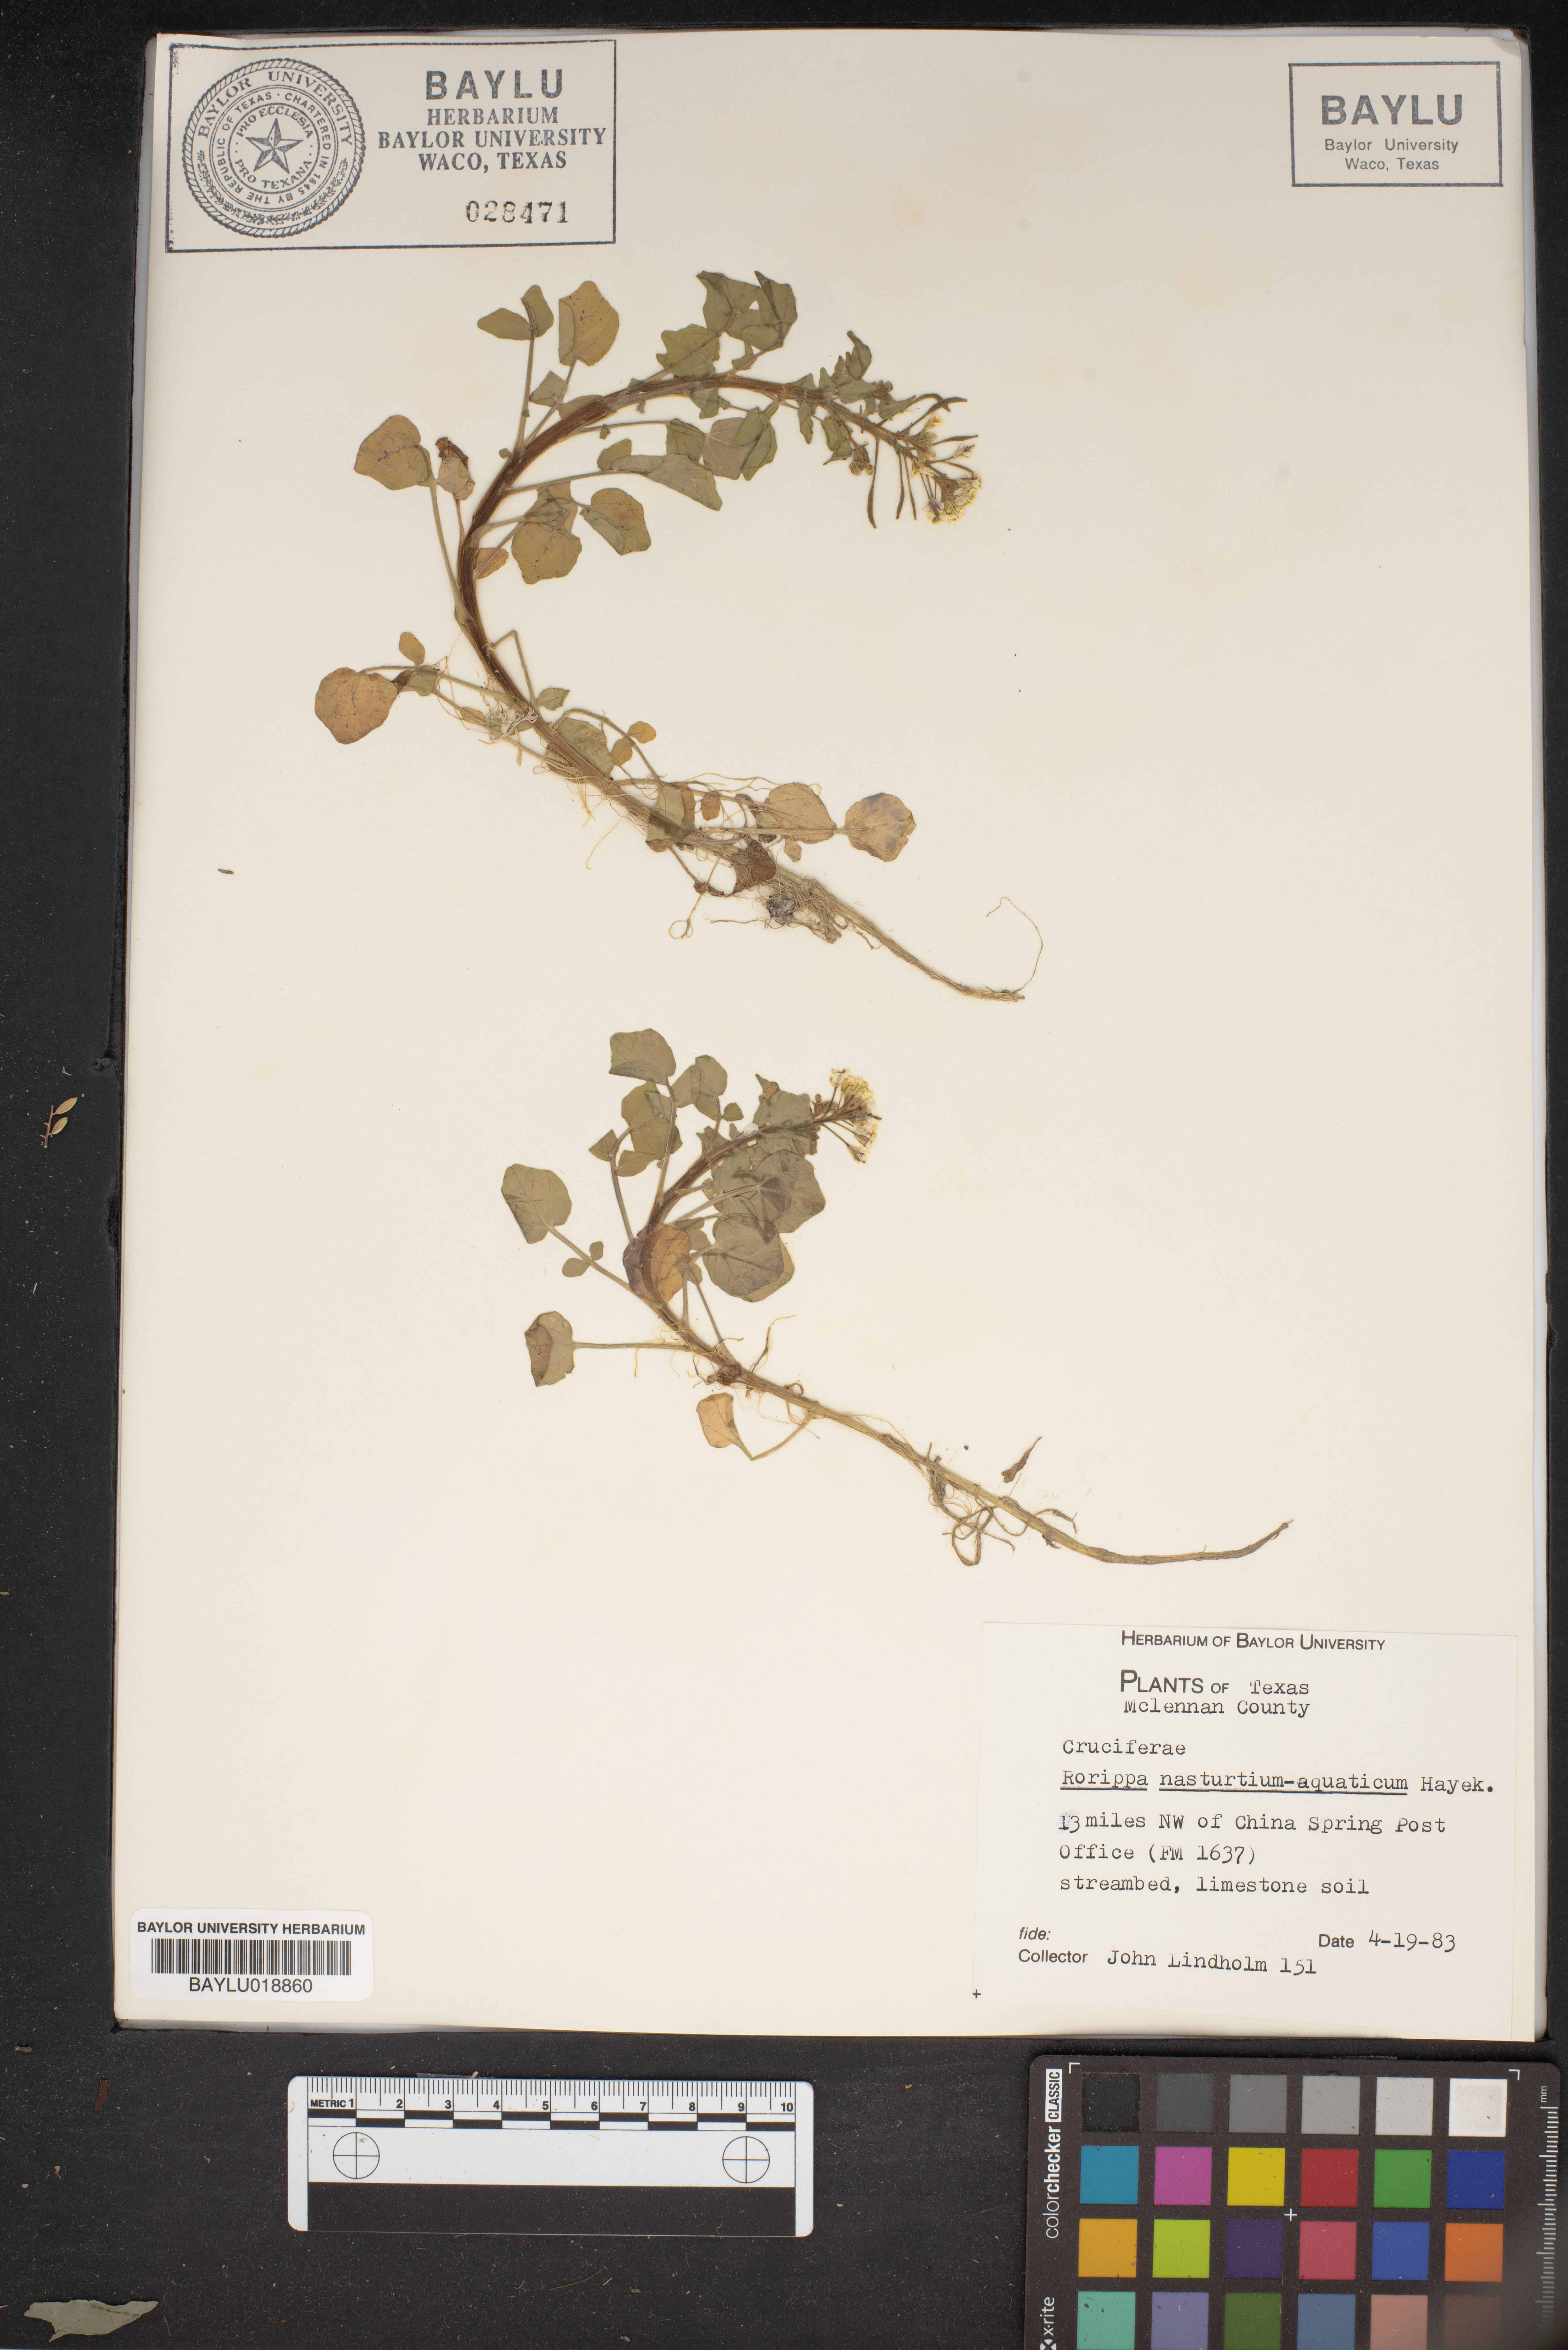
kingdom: Plantae
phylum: Tracheophyta
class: Magnoliopsida
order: Brassicales
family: Brassicaceae
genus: Nasturtium
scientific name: Nasturtium officinale
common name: Watercress
